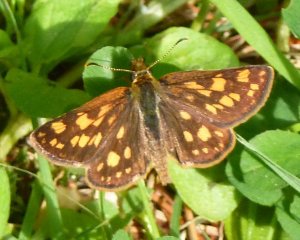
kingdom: Animalia
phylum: Arthropoda
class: Insecta
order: Lepidoptera
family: Hesperiidae
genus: Carterocephalus
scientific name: Carterocephalus palaemon
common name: Chequered Skipper
